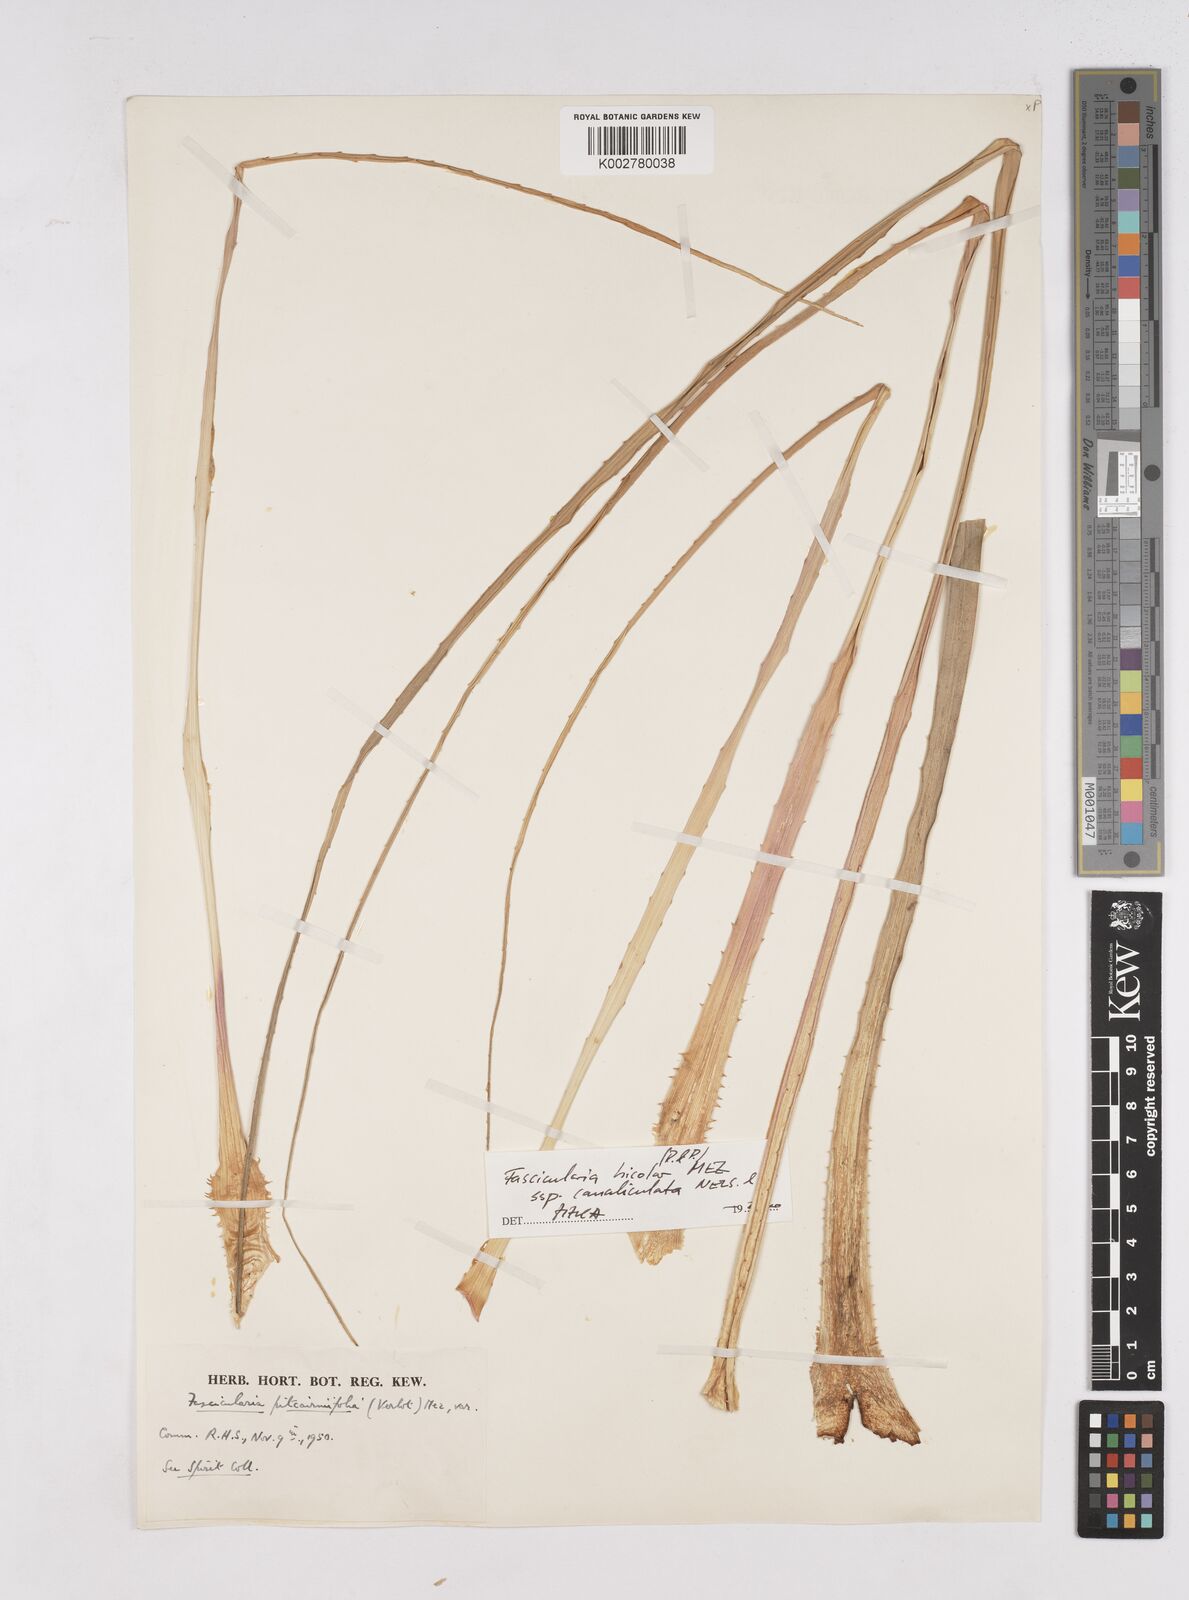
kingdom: Plantae
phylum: Tracheophyta
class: Liliopsida
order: Poales
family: Bromeliaceae
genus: Hechtia
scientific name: Hechtia pitcairniifolia
